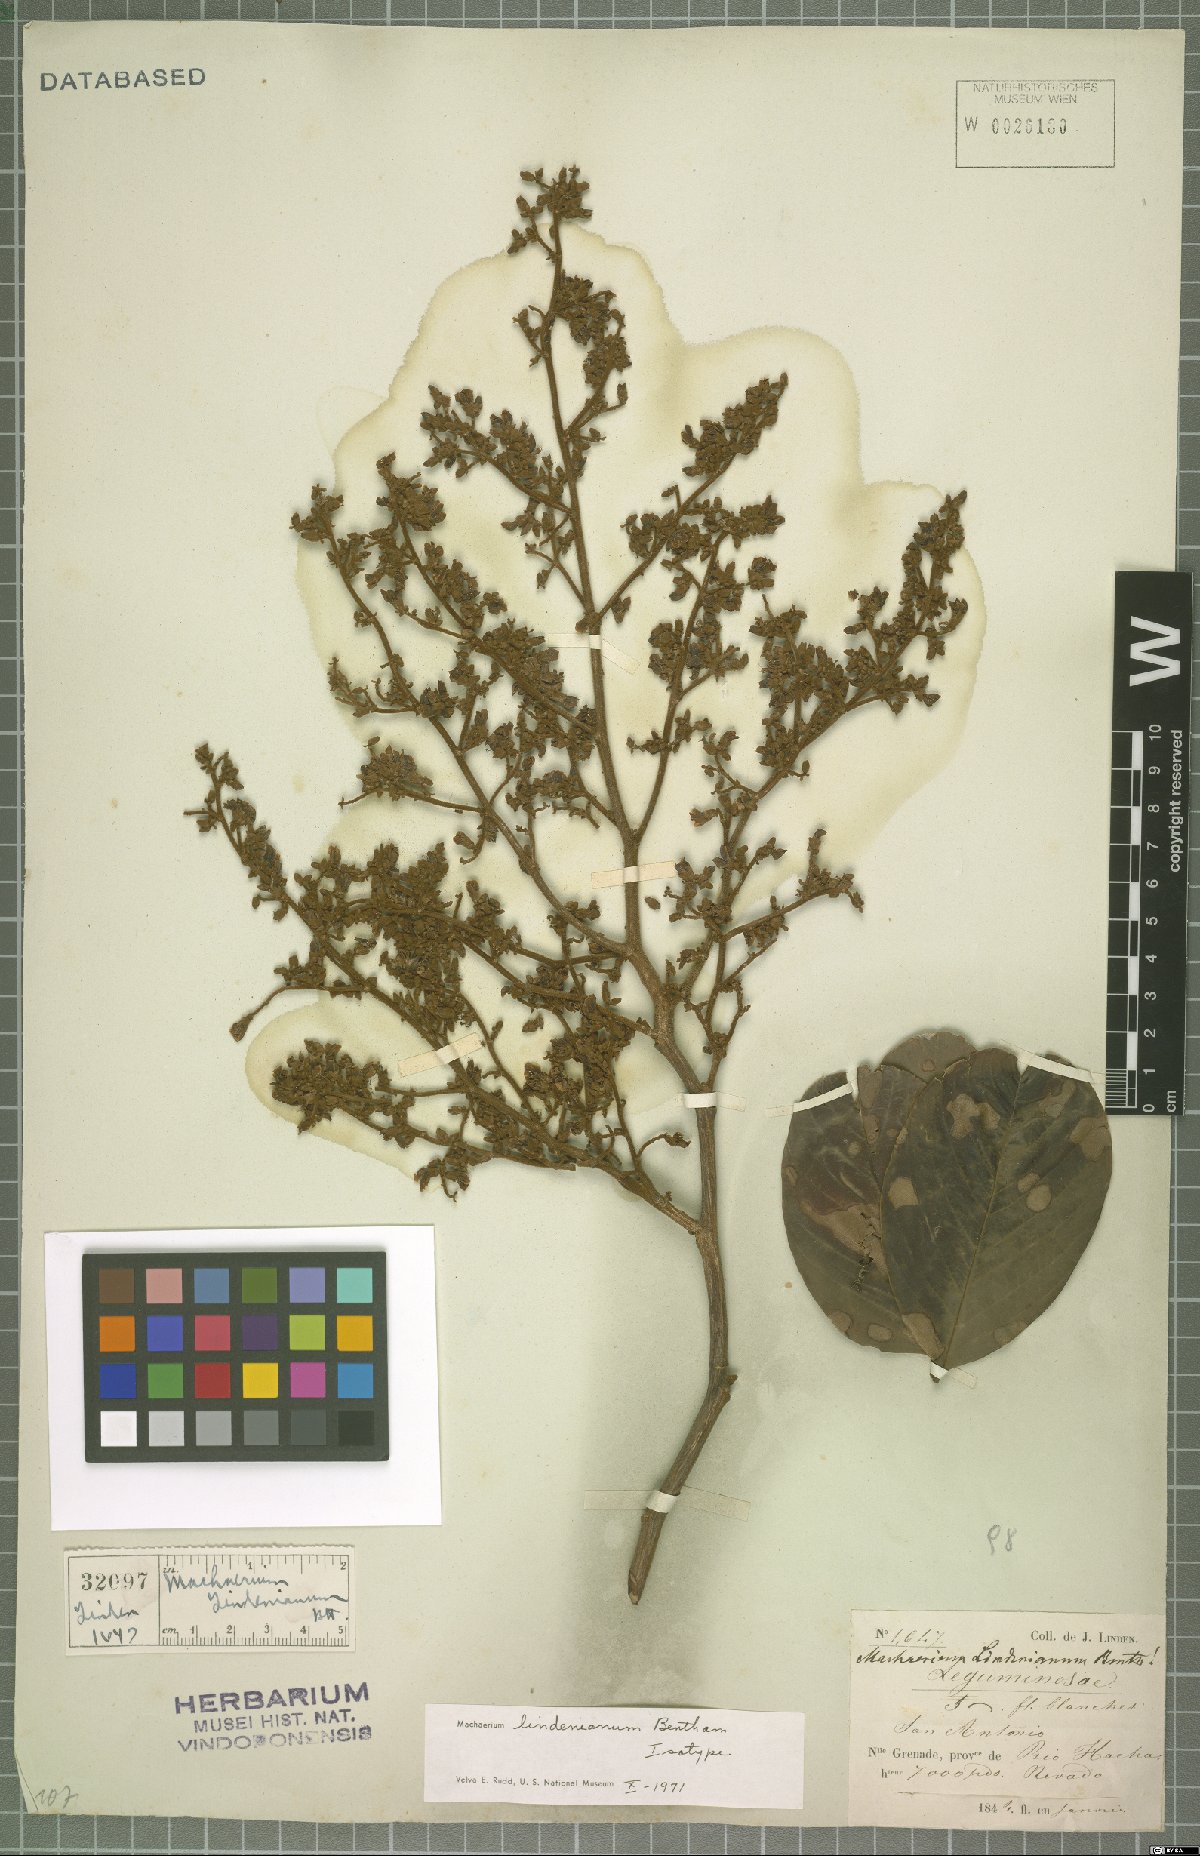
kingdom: Plantae
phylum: Tracheophyta
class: Magnoliopsida
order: Fabales
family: Fabaceae
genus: Machaerium
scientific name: Machaerium lindenianum
